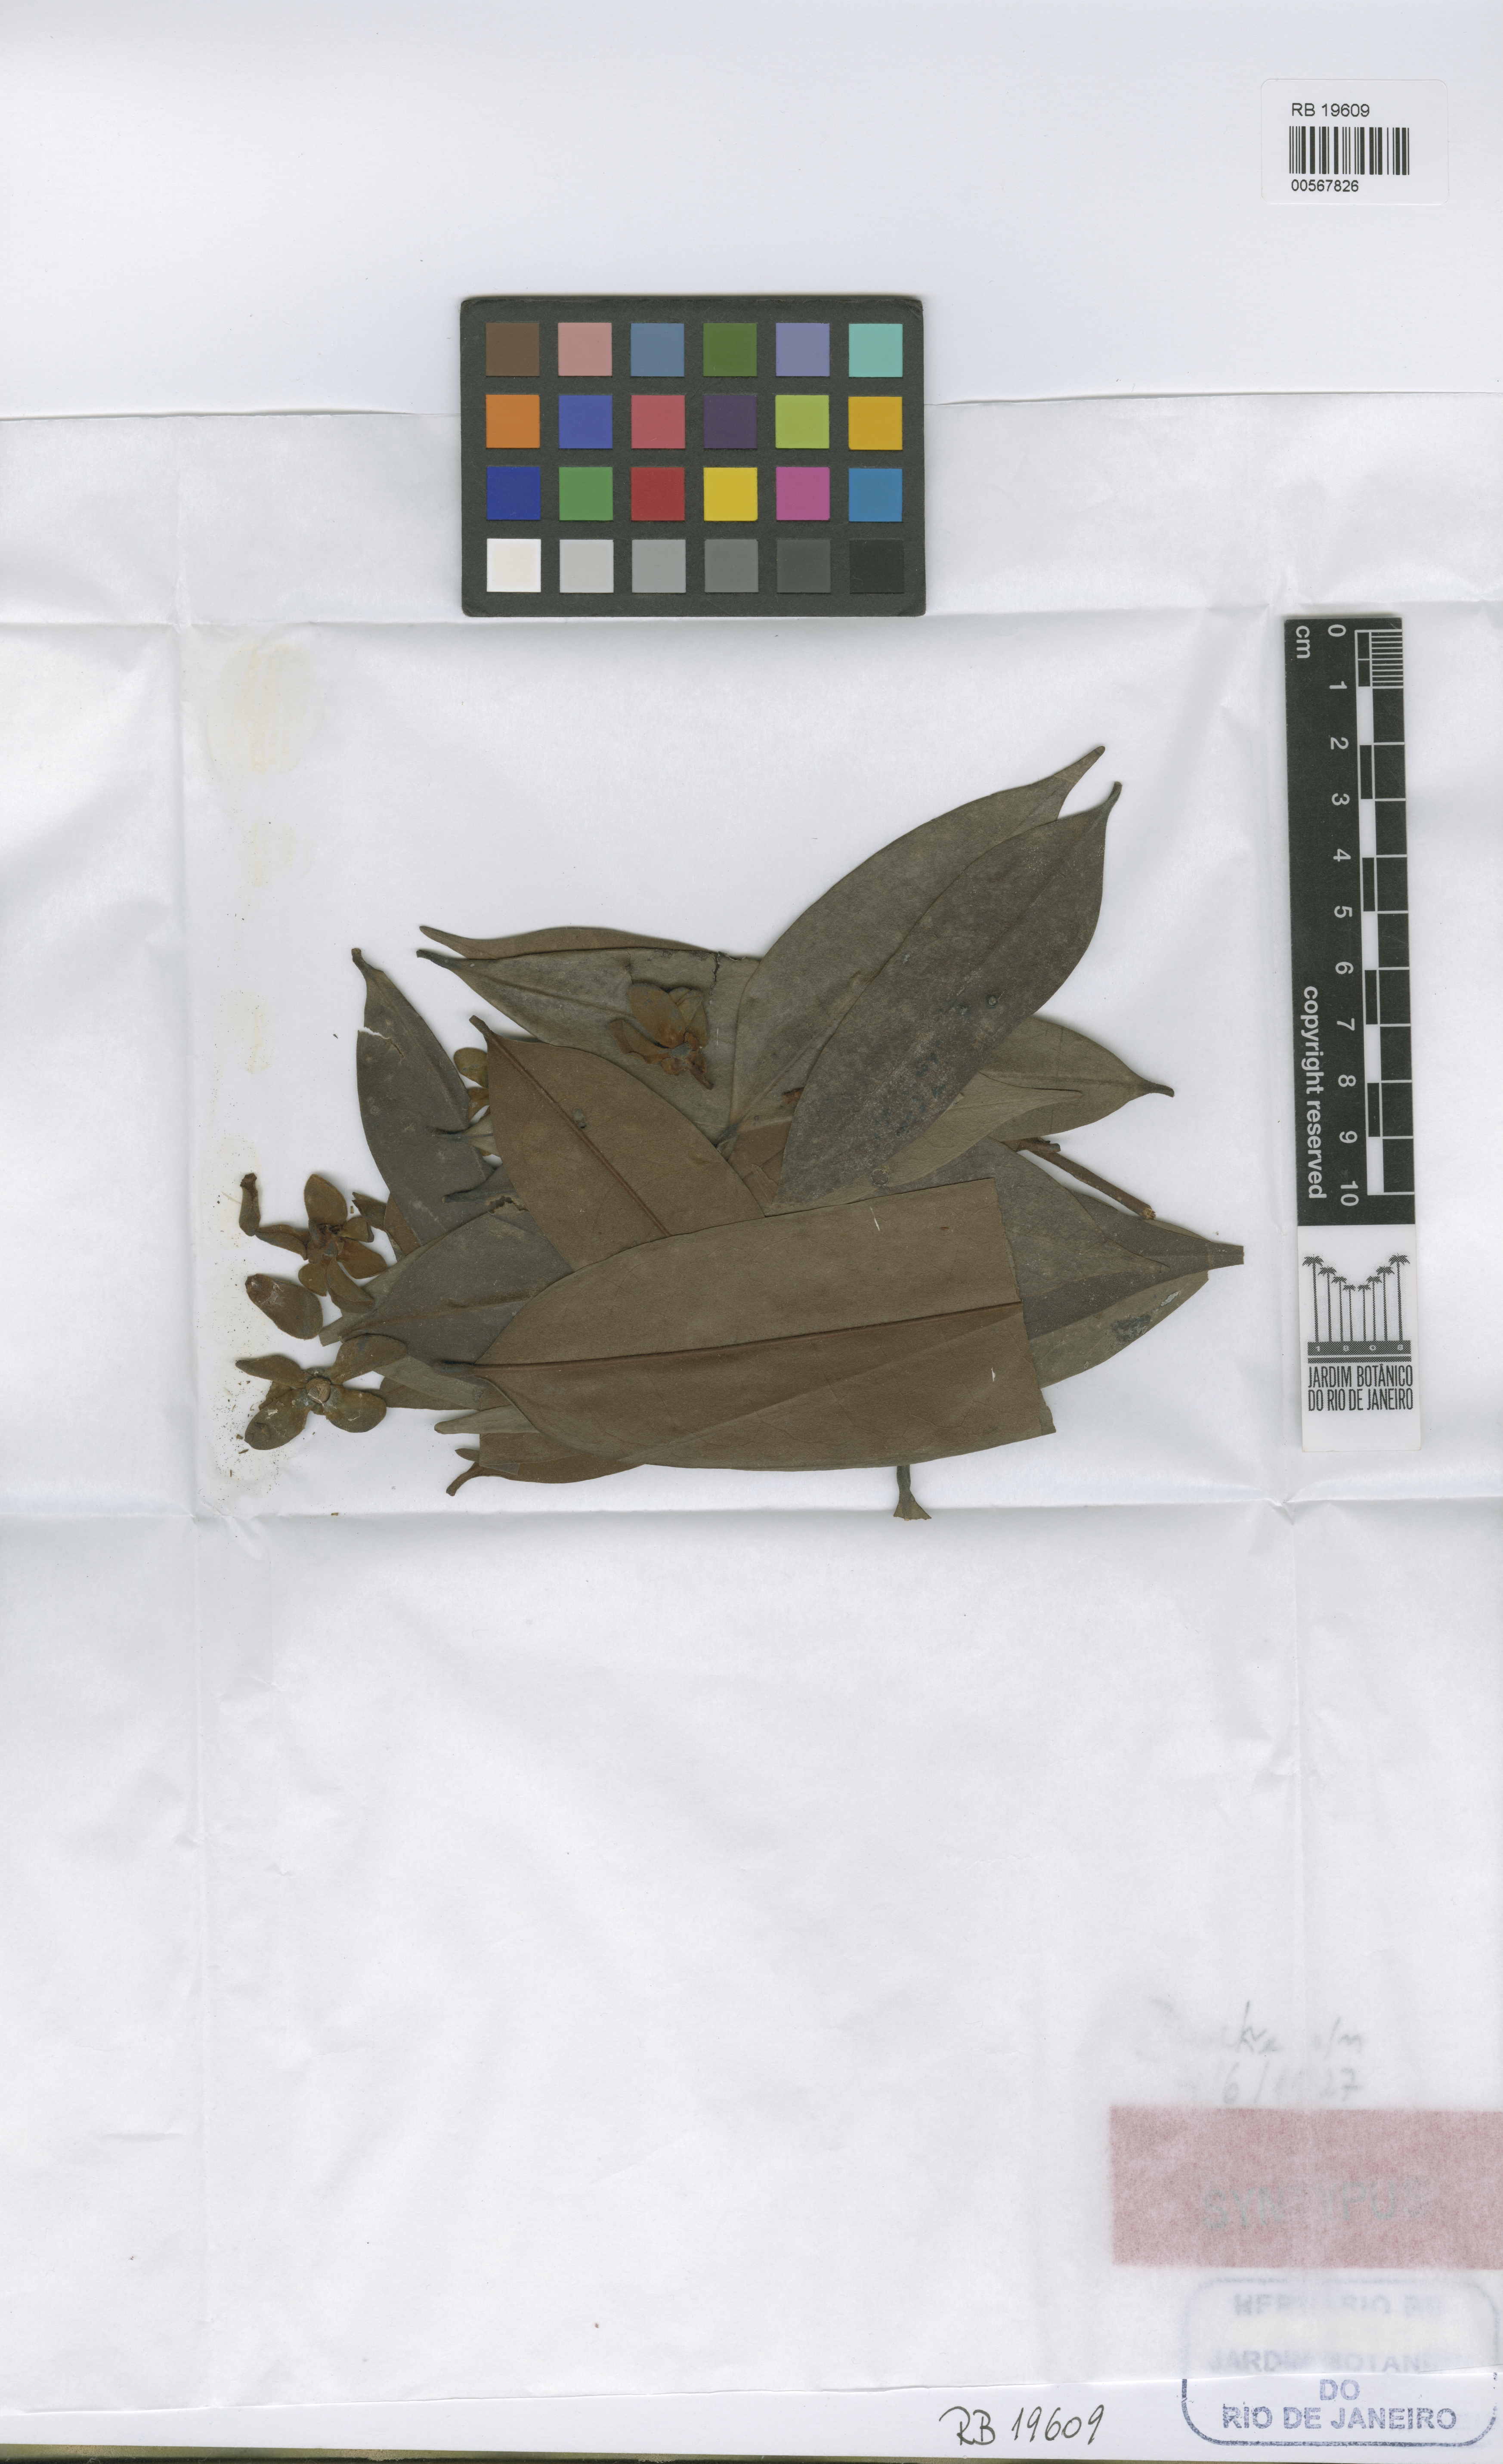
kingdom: Plantae
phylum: Tracheophyta
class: Magnoliopsida
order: Magnoliales
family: Annonaceae
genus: Guatteria
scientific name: Guatteria citriodora
